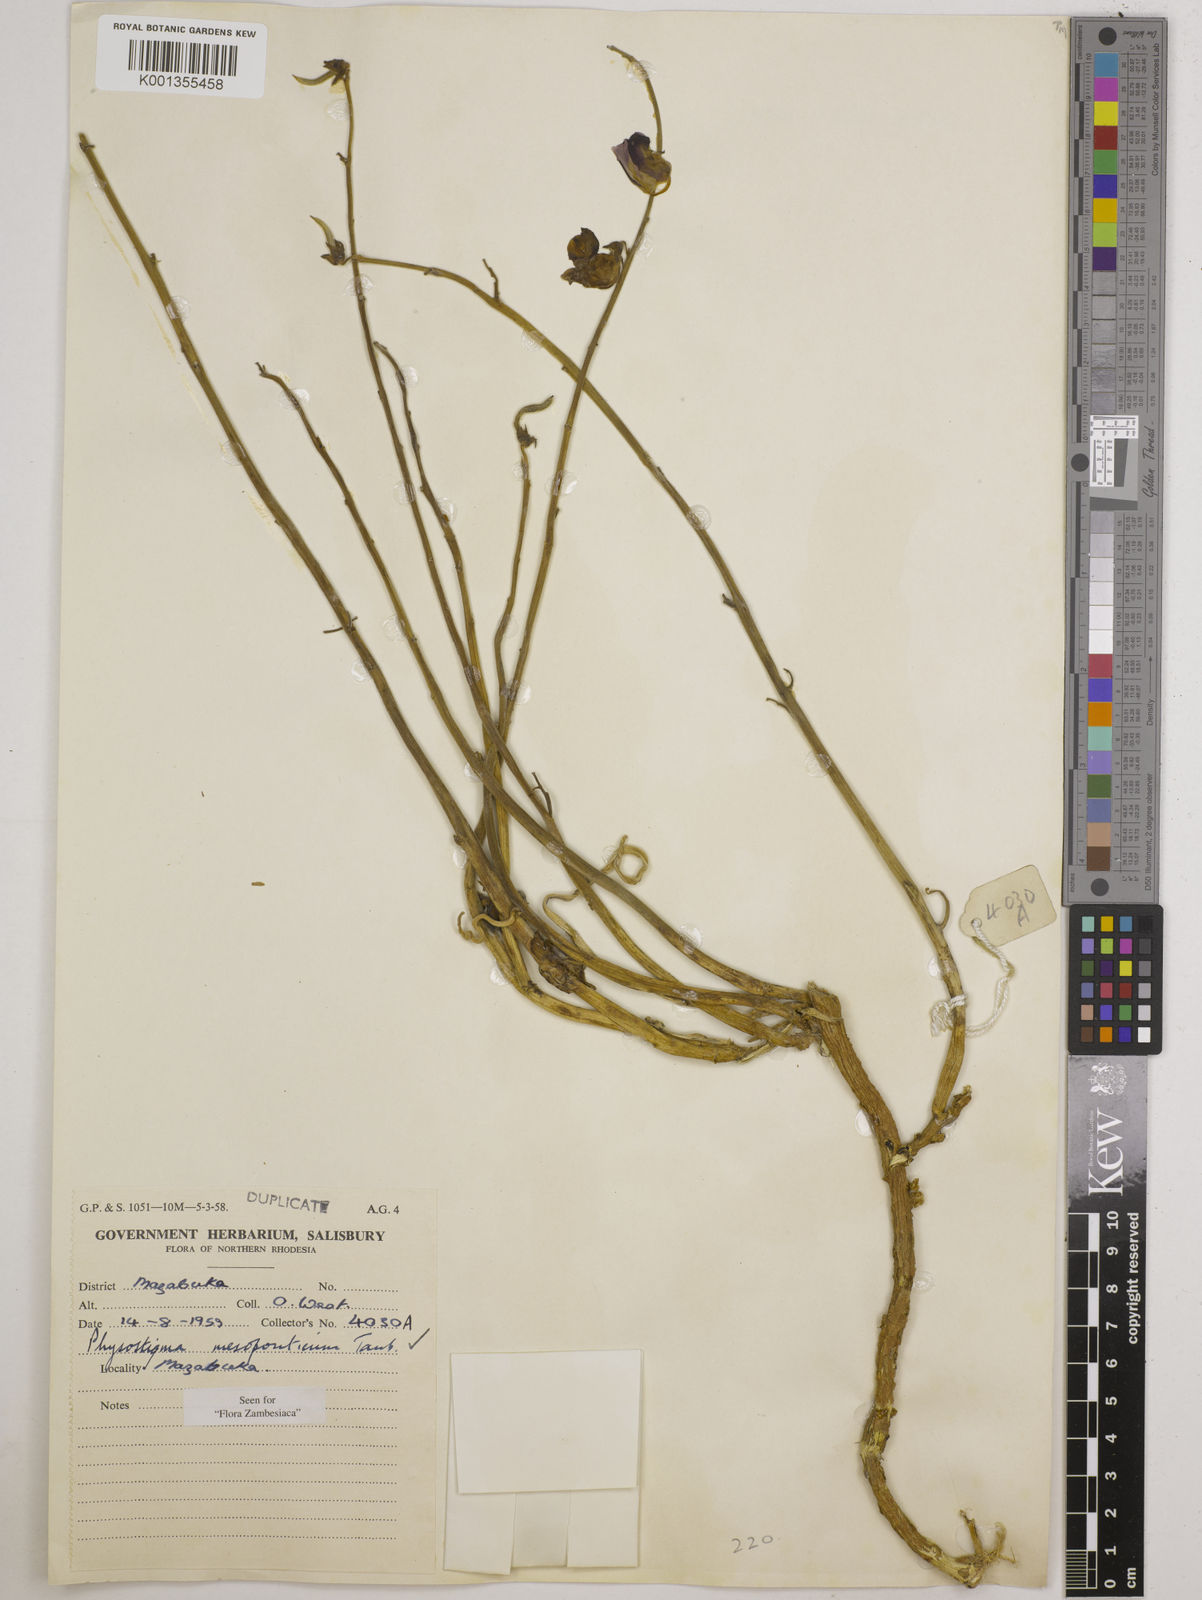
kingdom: Plantae
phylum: Tracheophyta
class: Magnoliopsida
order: Fabales
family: Fabaceae
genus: Physostigma
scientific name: Physostigma mesoponticum
